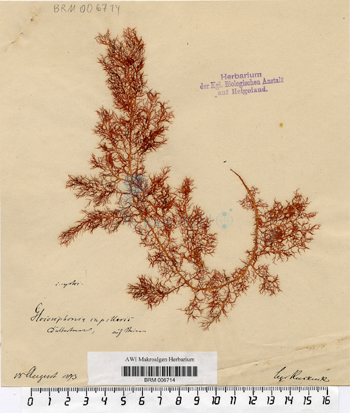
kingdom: Plantae
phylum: Rhodophyta
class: Florideophyceae
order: Gigartinales
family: Gloiosiphoniaceae
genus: Gloiosiphonia
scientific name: Gloiosiphonia capillaris
